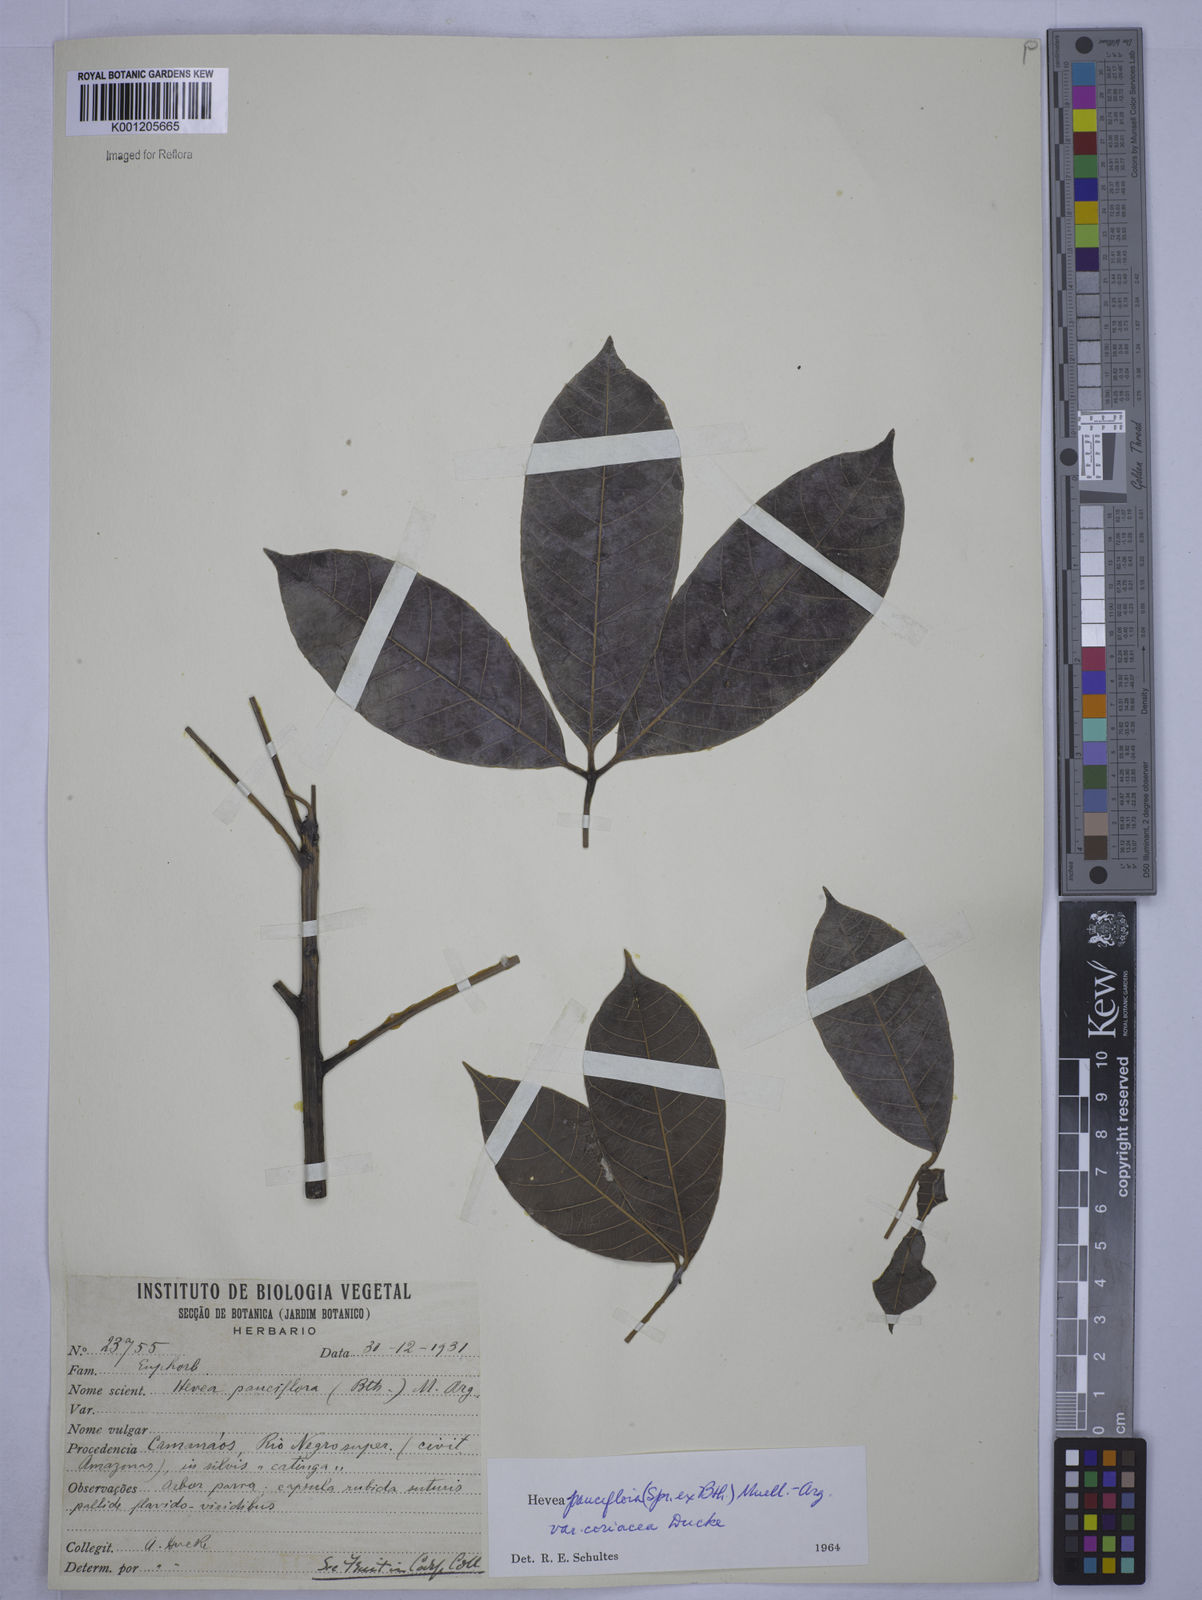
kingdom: Plantae
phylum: Tracheophyta
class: Magnoliopsida
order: Malpighiales
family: Euphorbiaceae
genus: Hevea
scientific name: Hevea pauciflora
